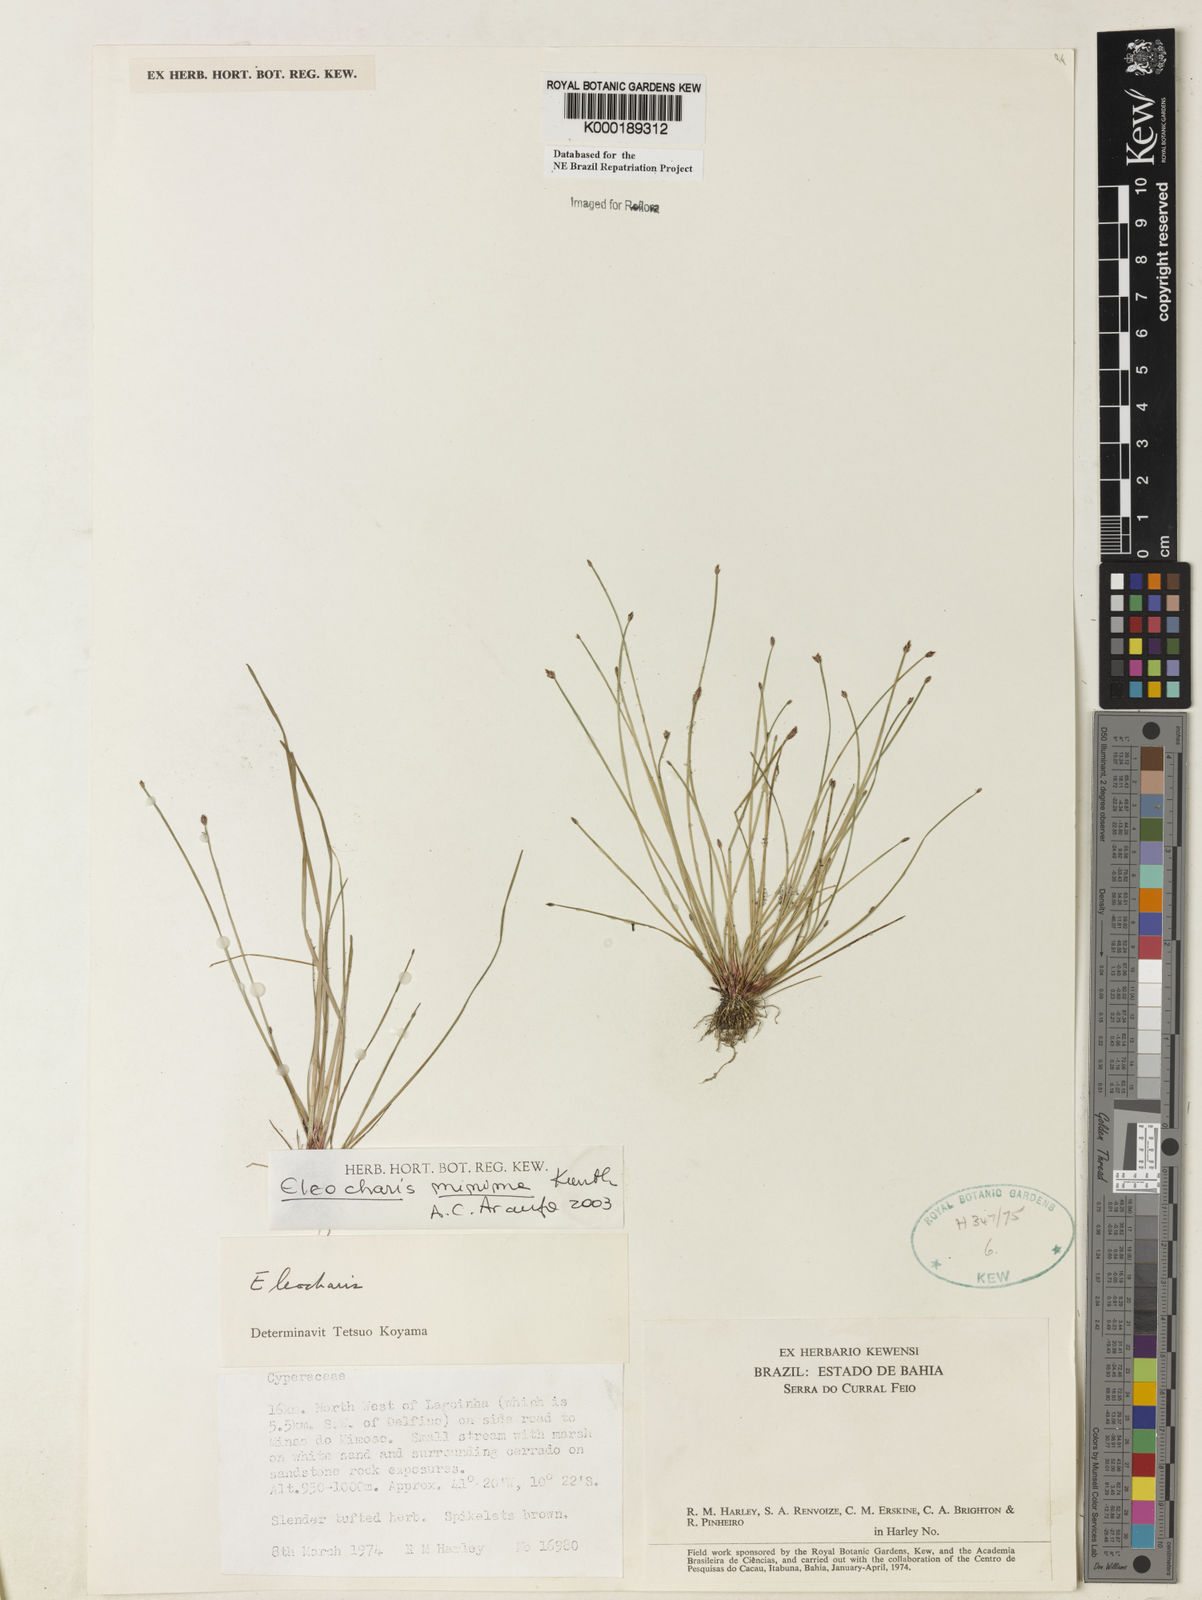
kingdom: Plantae
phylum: Tracheophyta
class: Liliopsida
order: Poales
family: Cyperaceae
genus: Eleocharis
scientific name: Eleocharis minima
